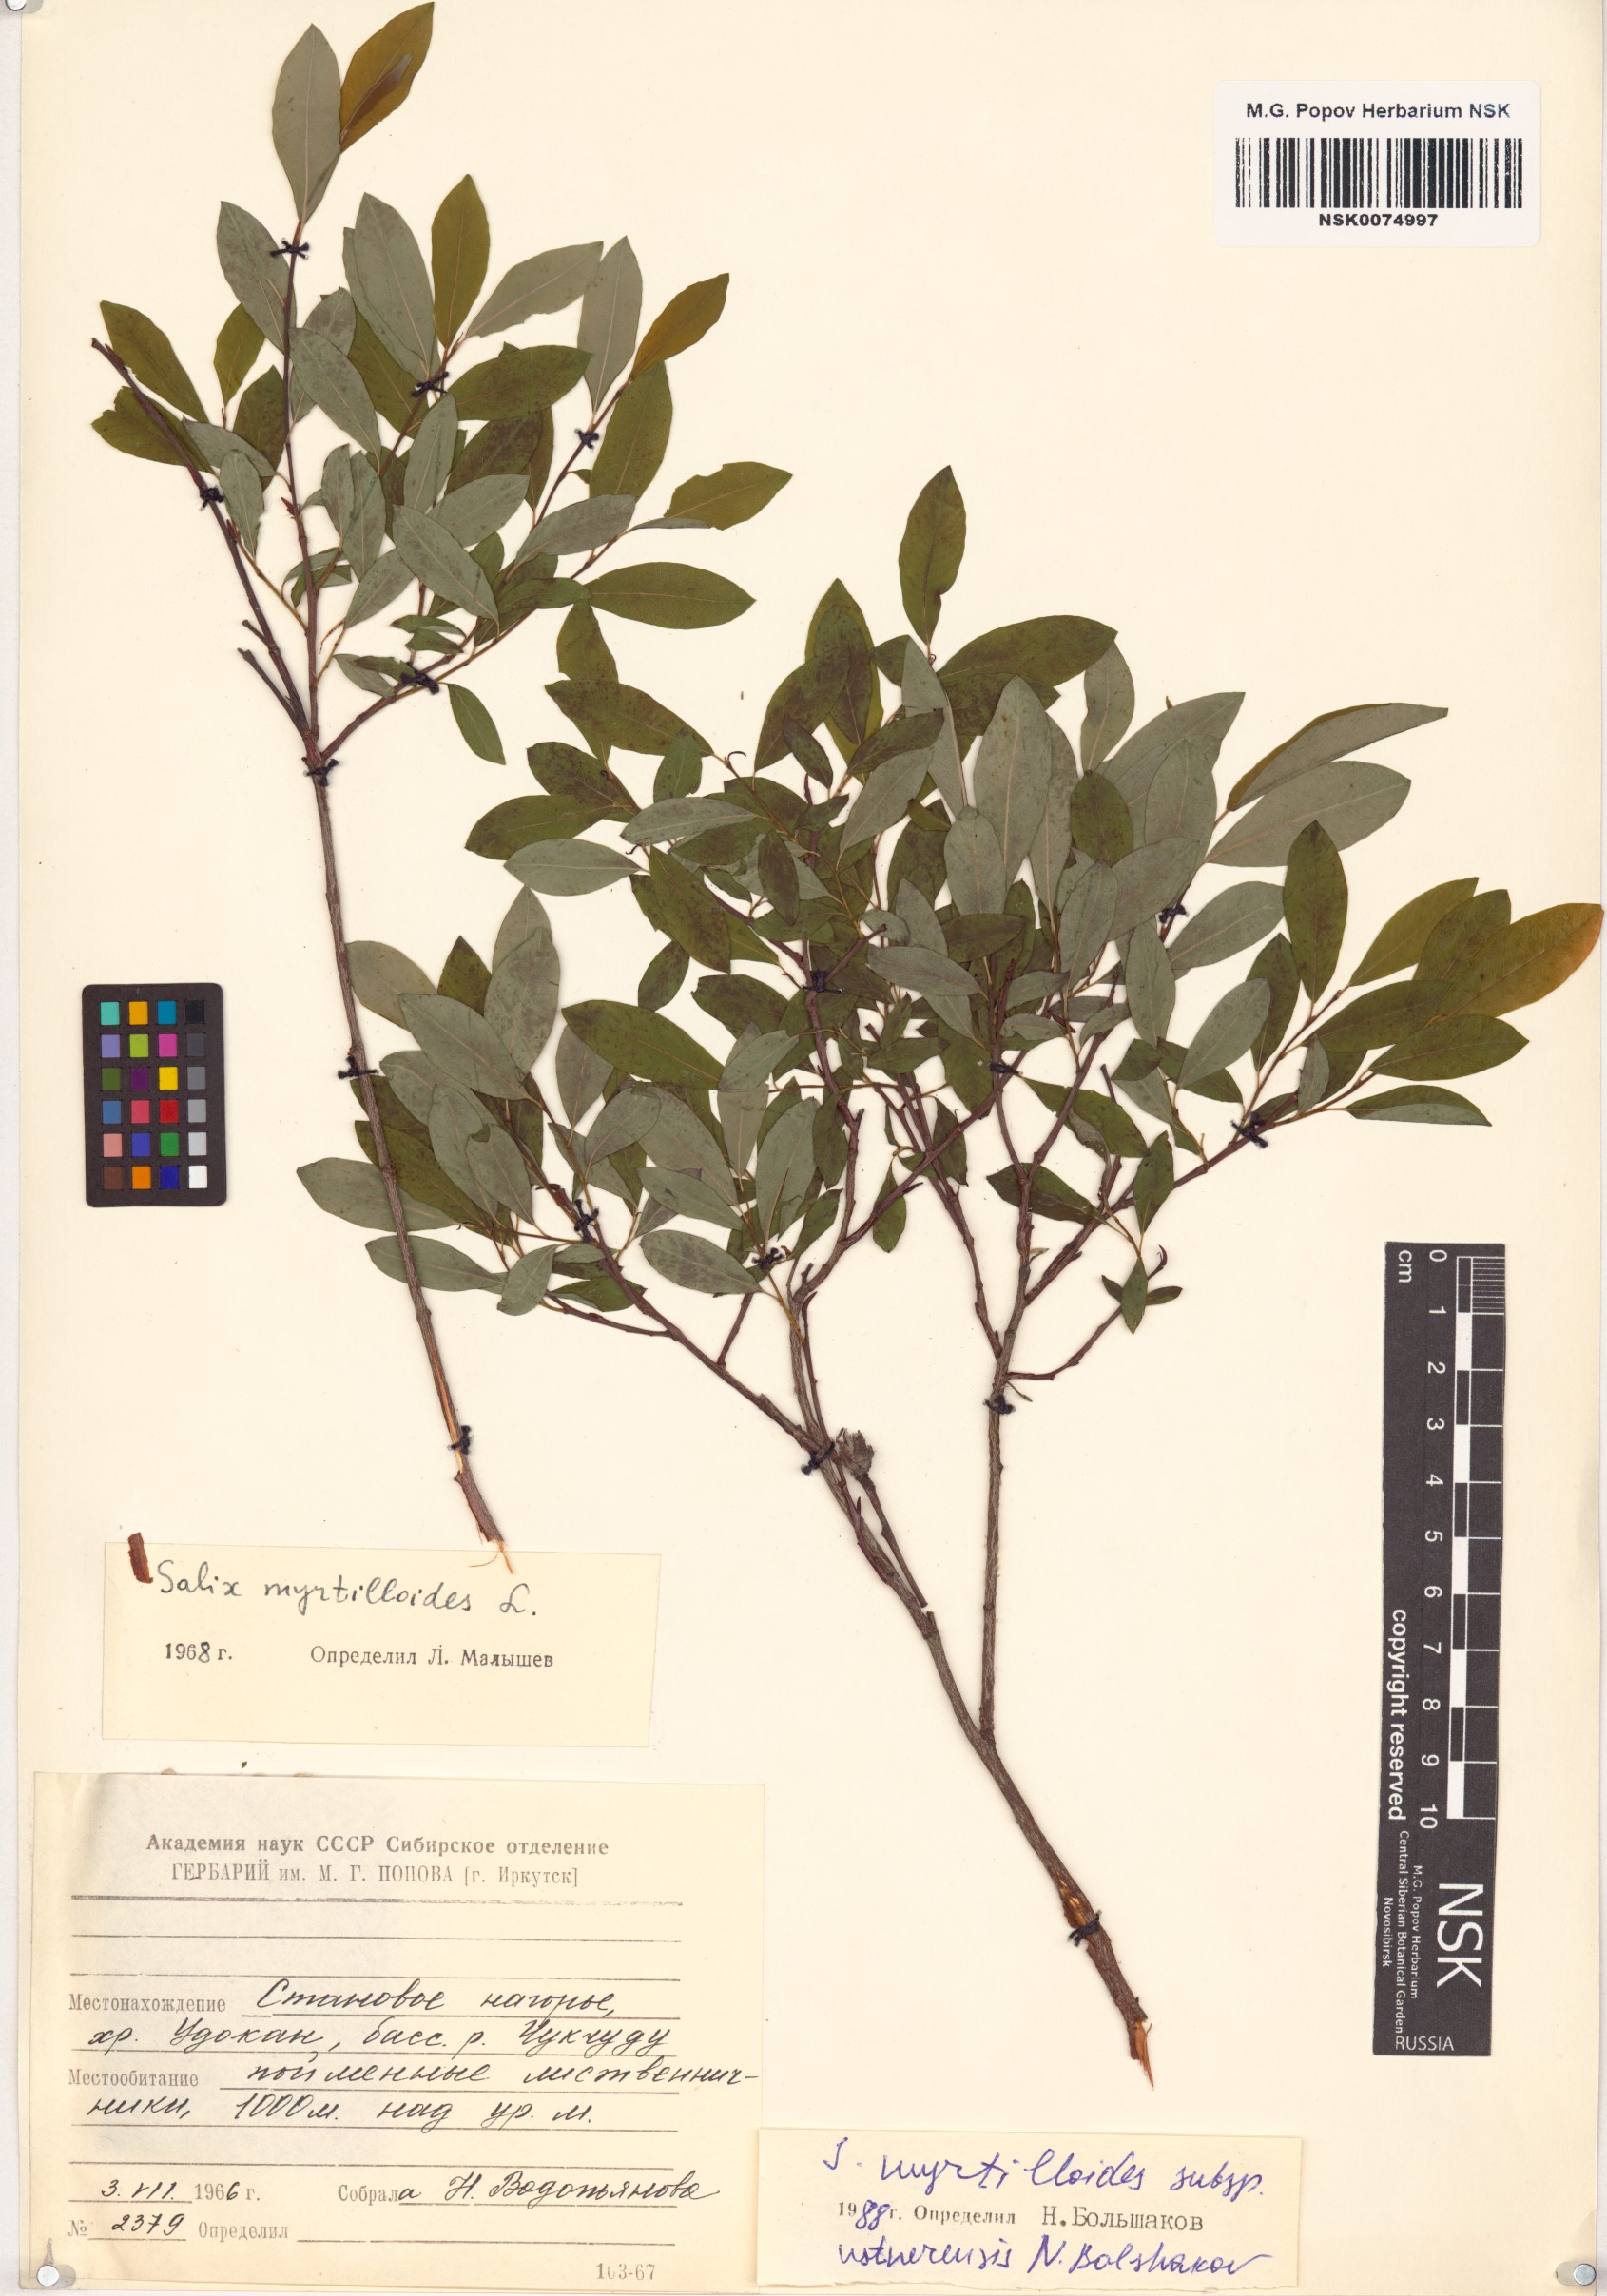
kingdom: Plantae
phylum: Tracheophyta
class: Magnoliopsida
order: Malpighiales
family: Salicaceae
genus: Salix
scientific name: Salix ustnerensis
